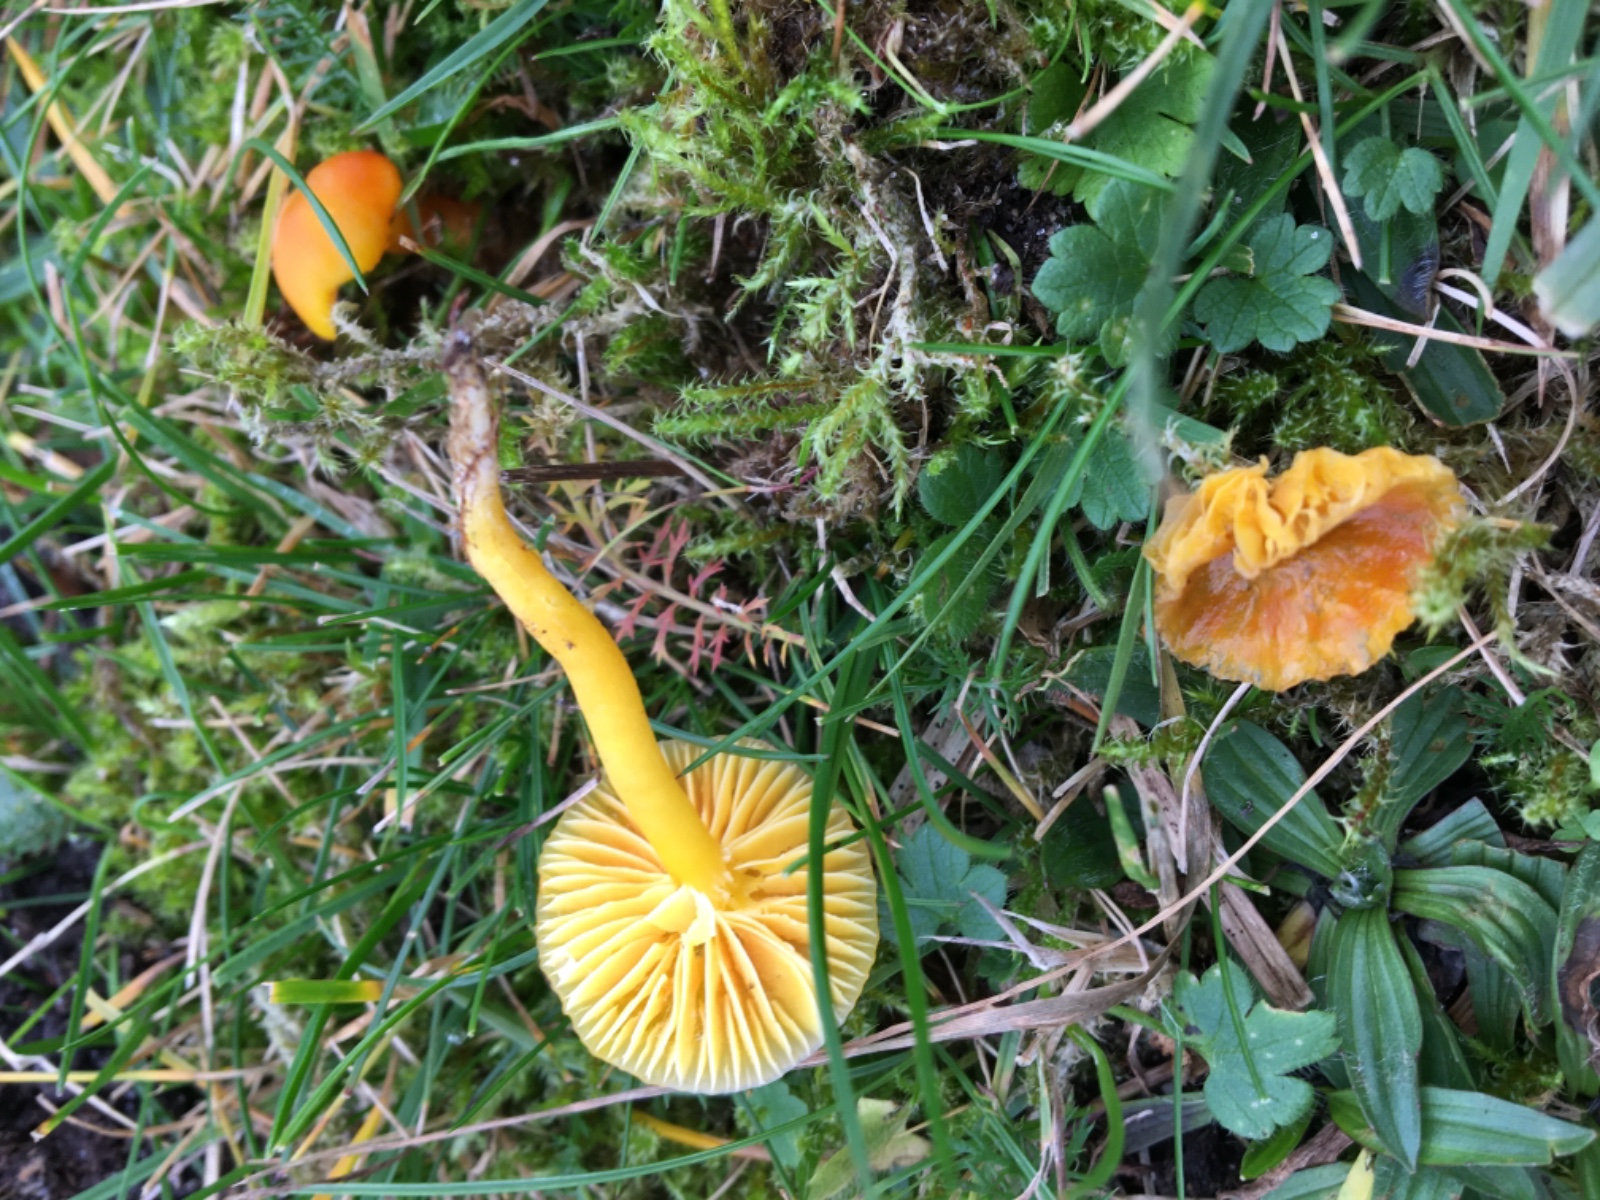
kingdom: Fungi
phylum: Basidiomycota
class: Agaricomycetes
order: Agaricales
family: Hygrophoraceae
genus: Hygrocybe
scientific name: Hygrocybe ceracea
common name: voksgul vokshat
